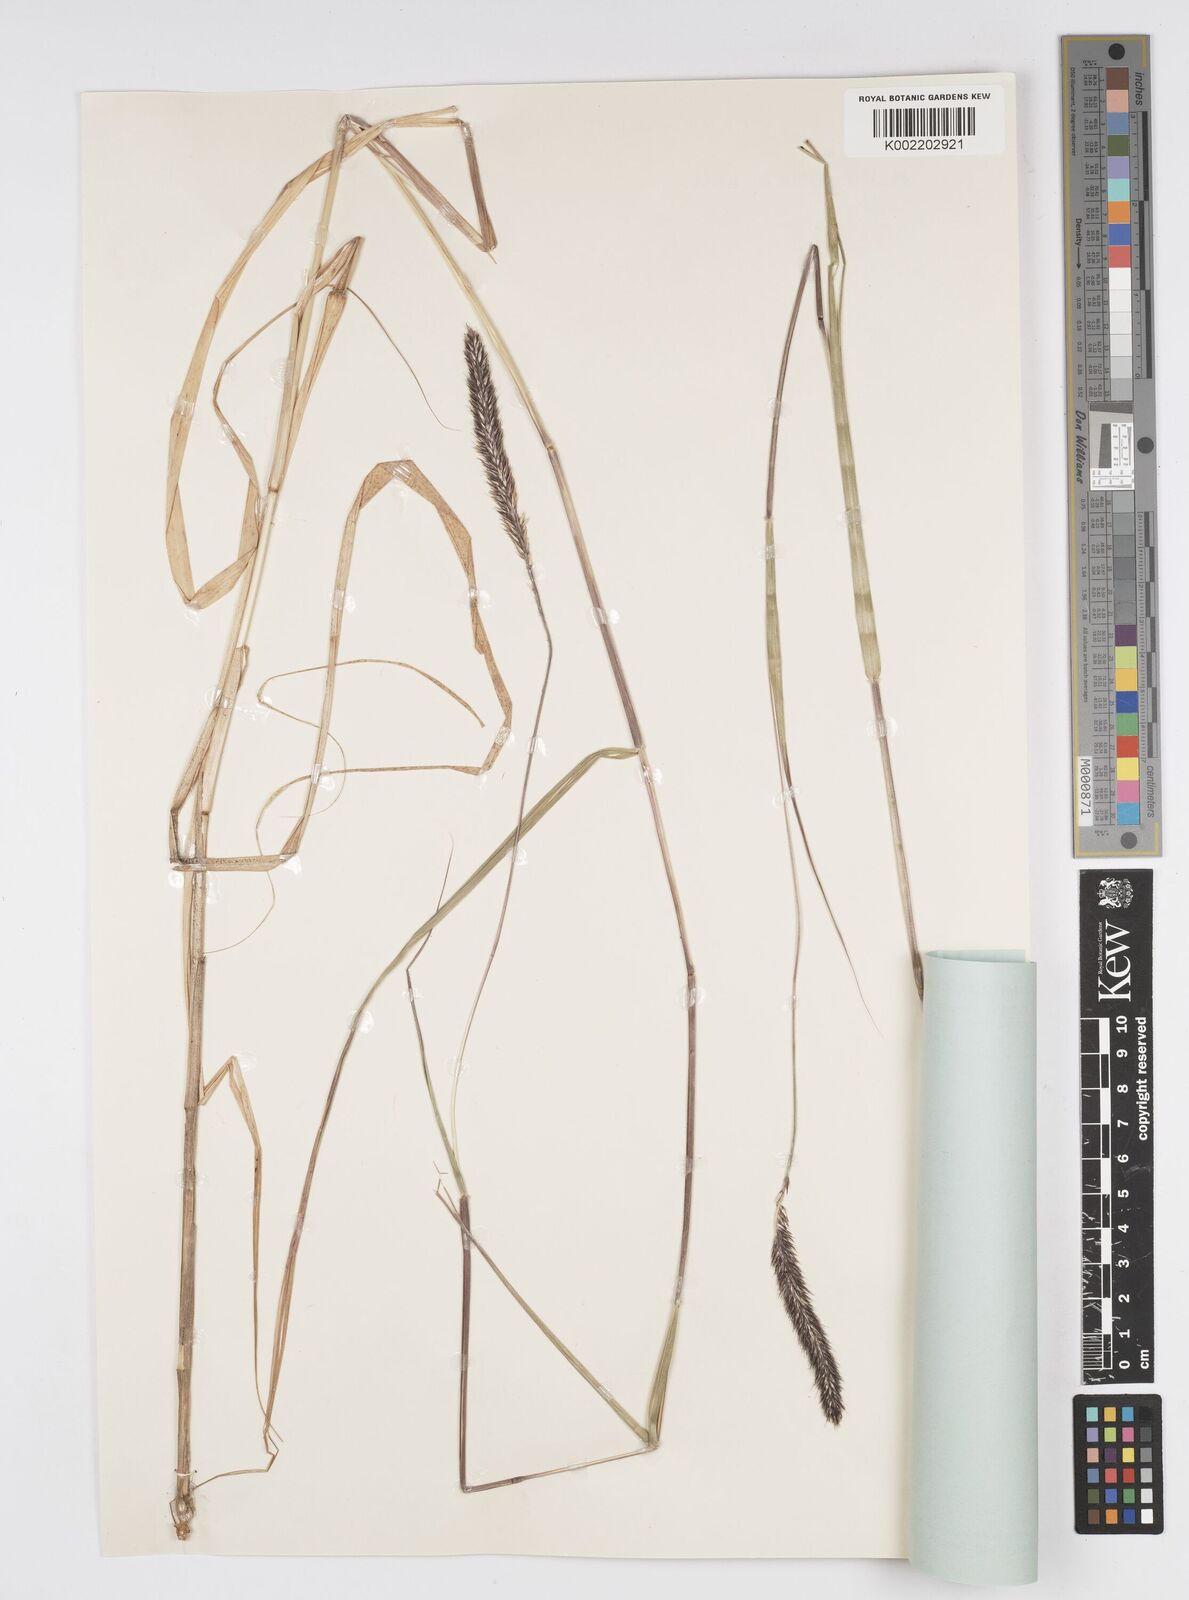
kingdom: Plantae
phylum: Tracheophyta
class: Liliopsida
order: Poales
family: Poaceae
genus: Cenchrus
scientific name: Cenchrus monostigma
